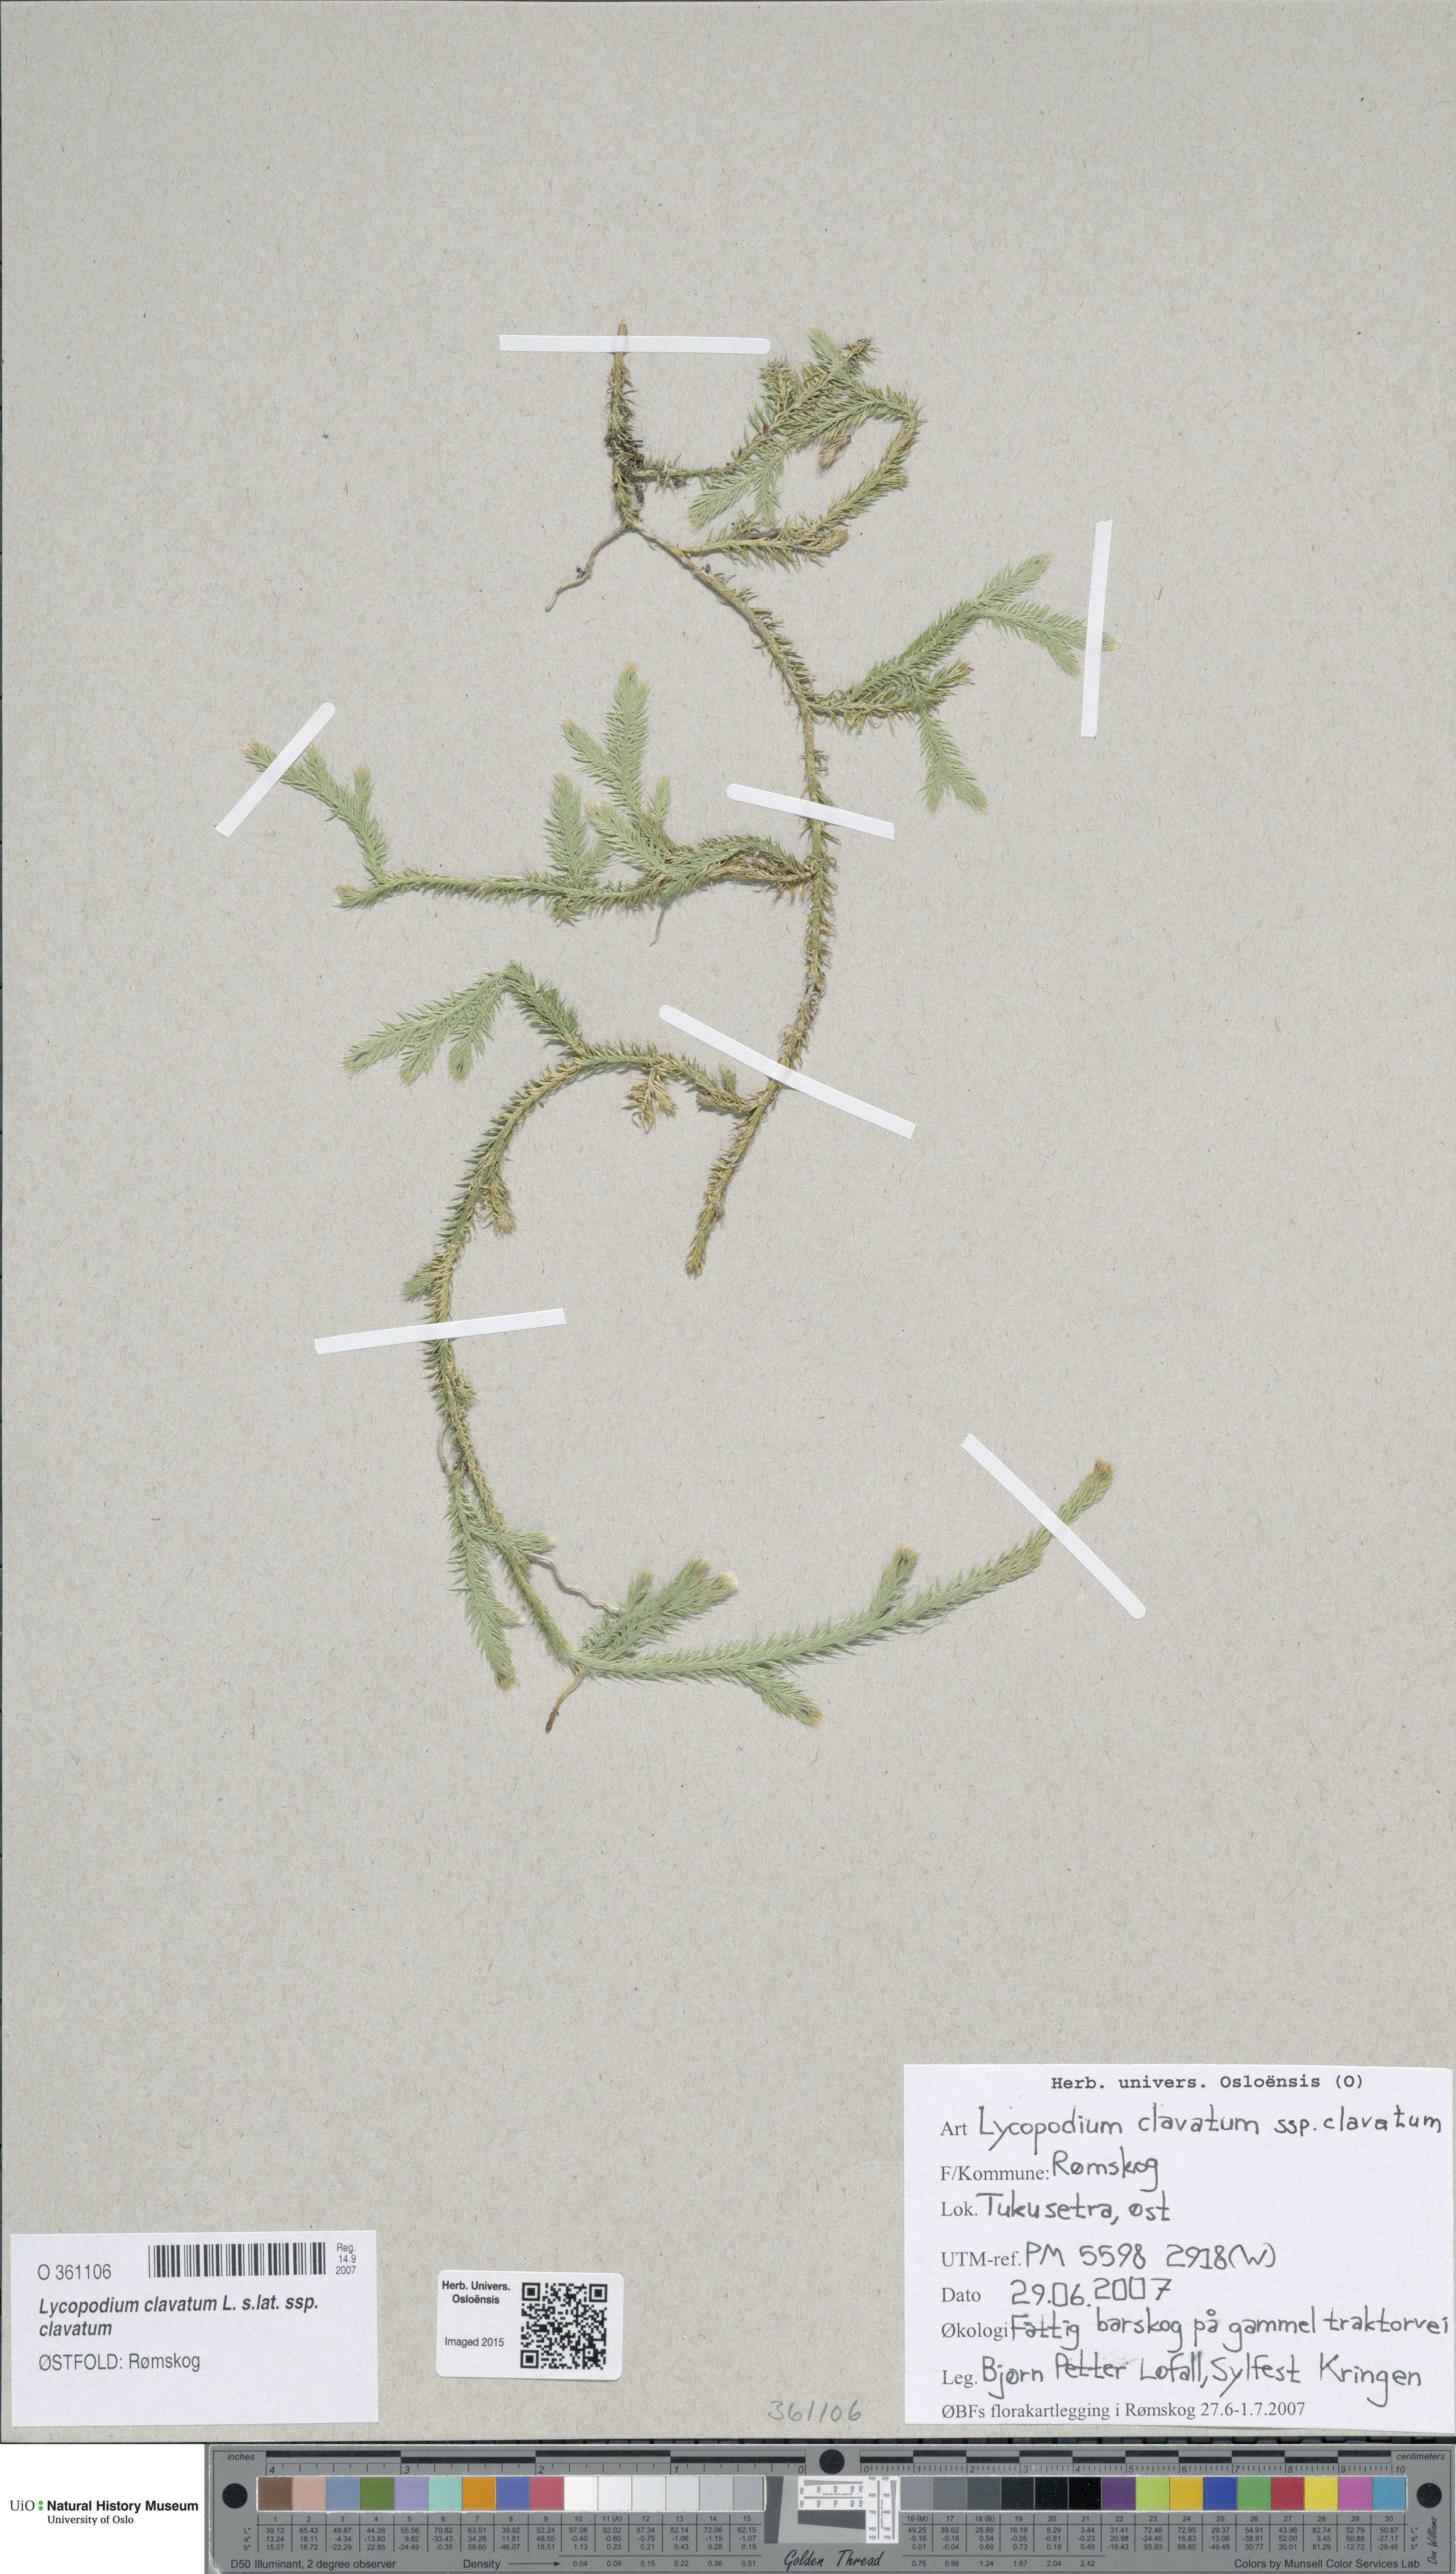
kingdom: Plantae
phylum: Tracheophyta
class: Lycopodiopsida
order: Lycopodiales
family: Lycopodiaceae
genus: Lycopodium
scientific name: Lycopodium clavatum
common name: Stag's-horn clubmoss
